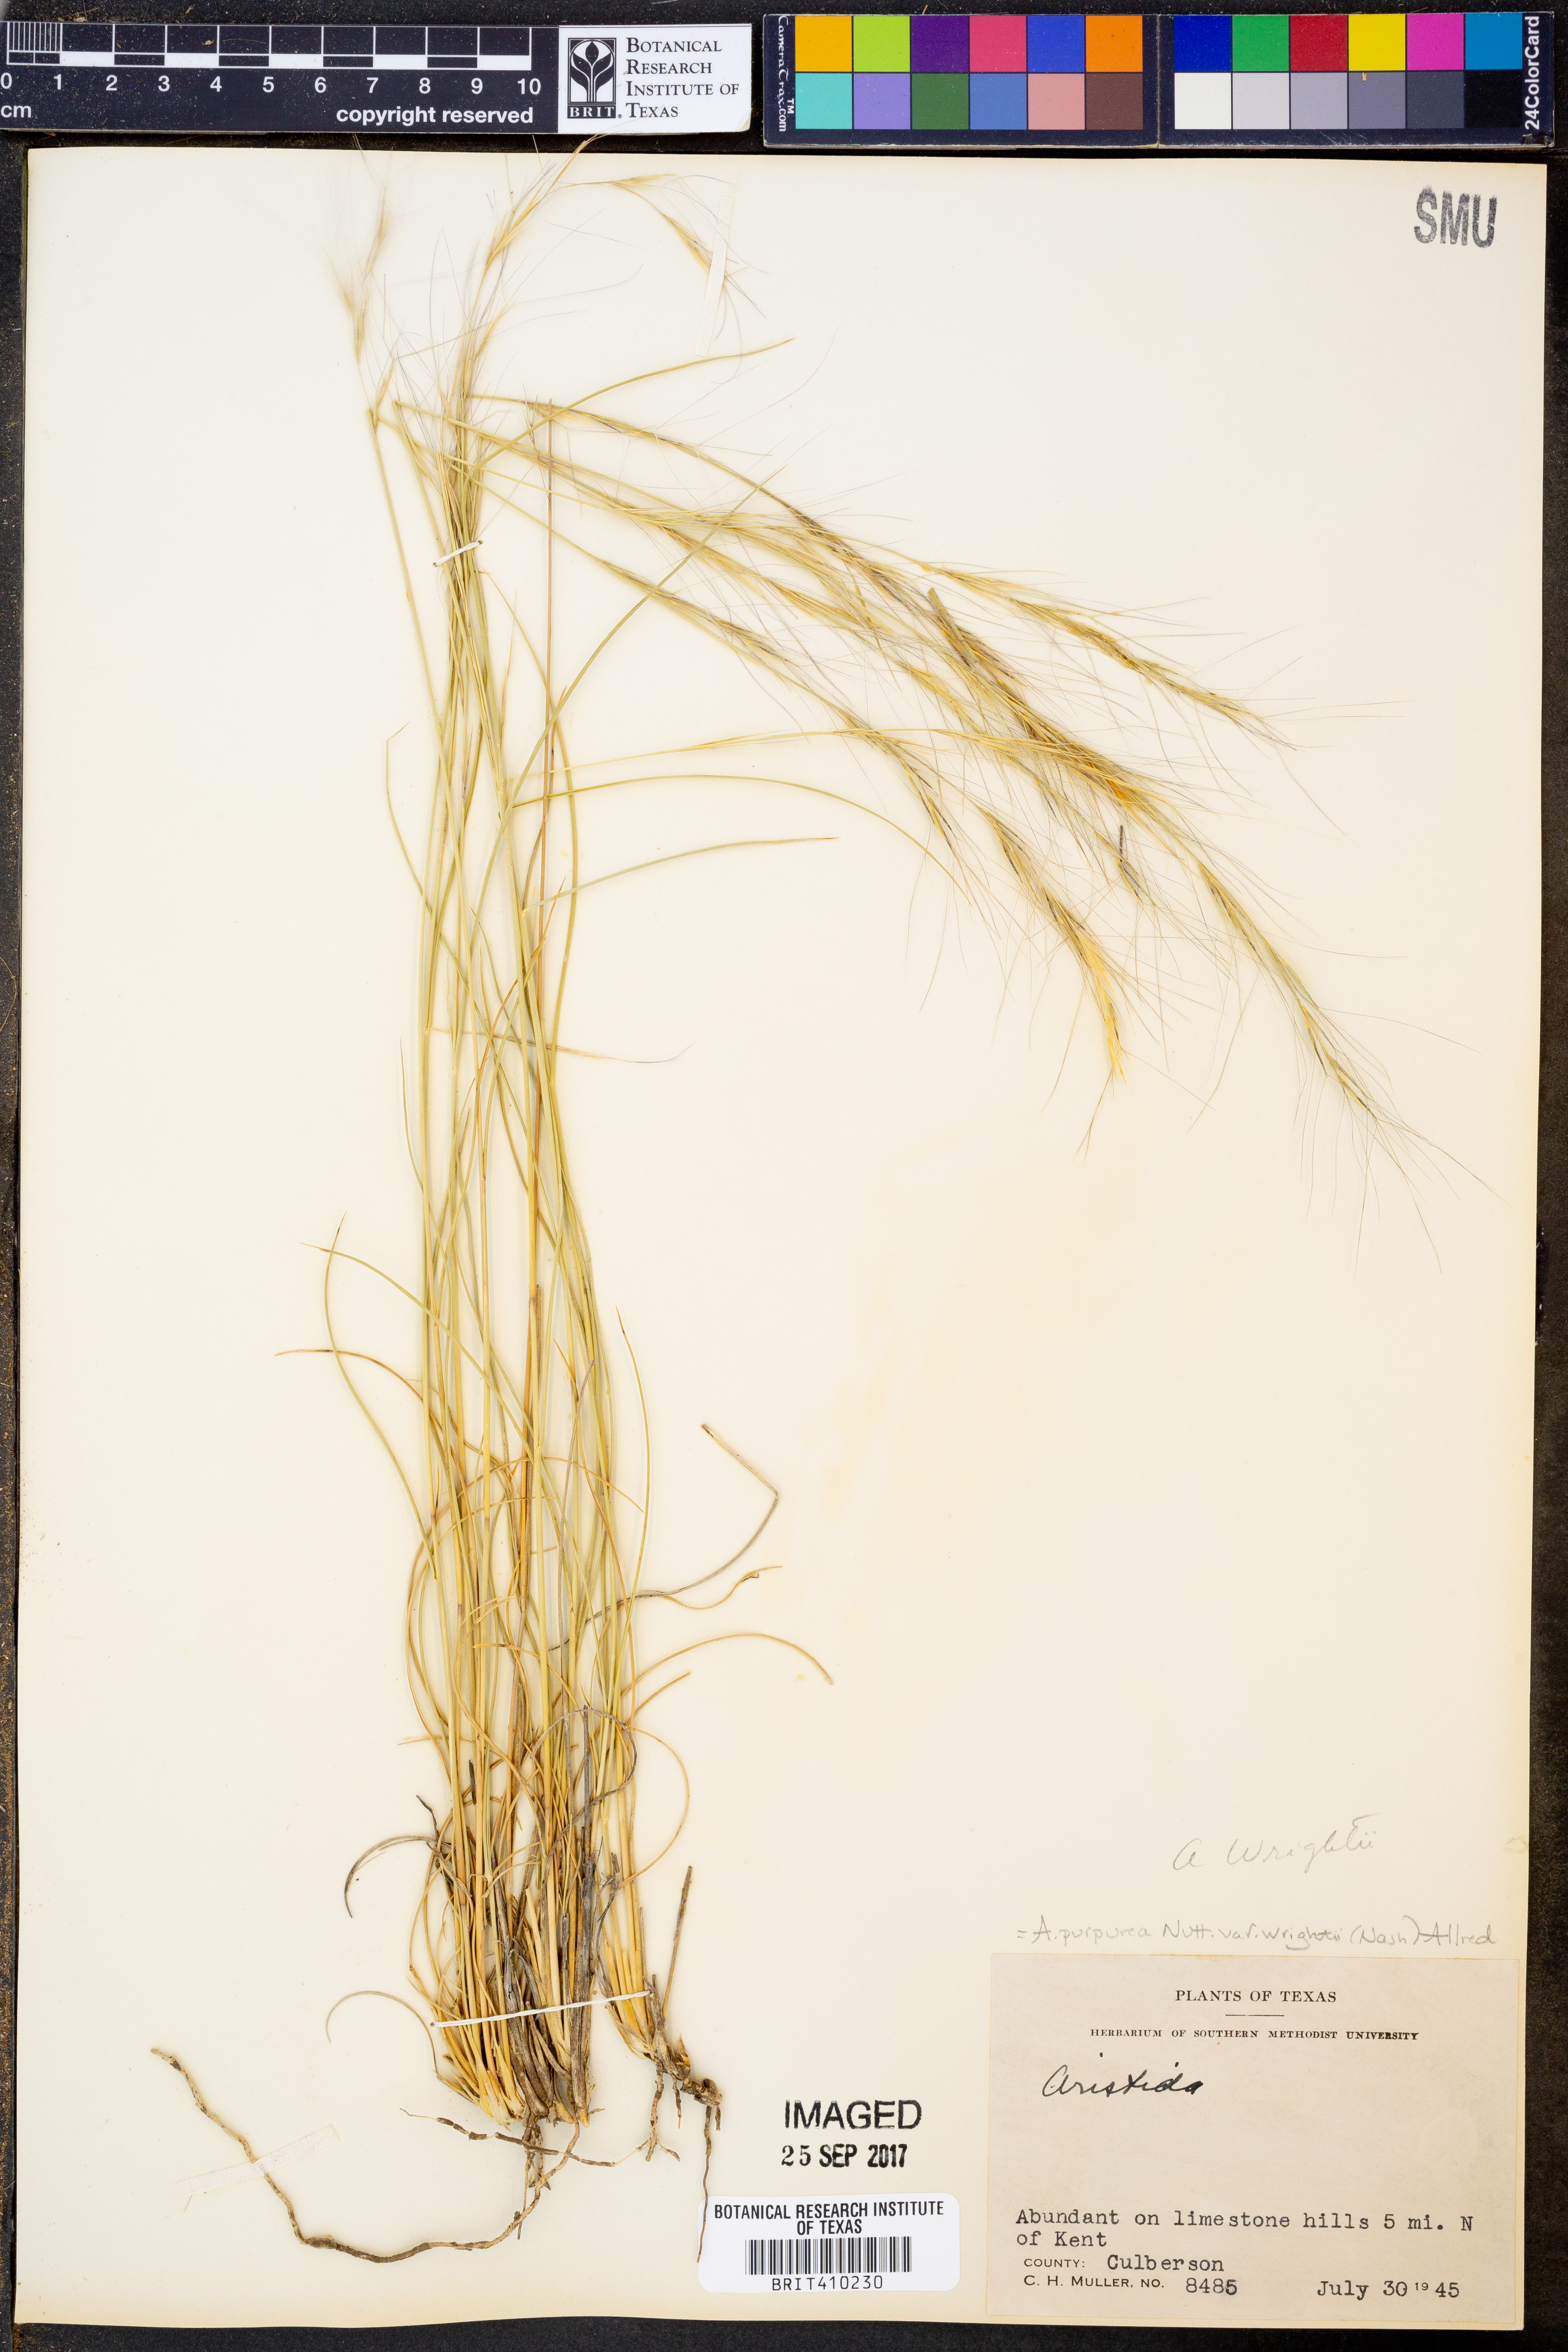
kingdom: Plantae
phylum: Tracheophyta
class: Liliopsida
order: Poales
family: Poaceae
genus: Aristida
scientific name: Aristida wrightii
